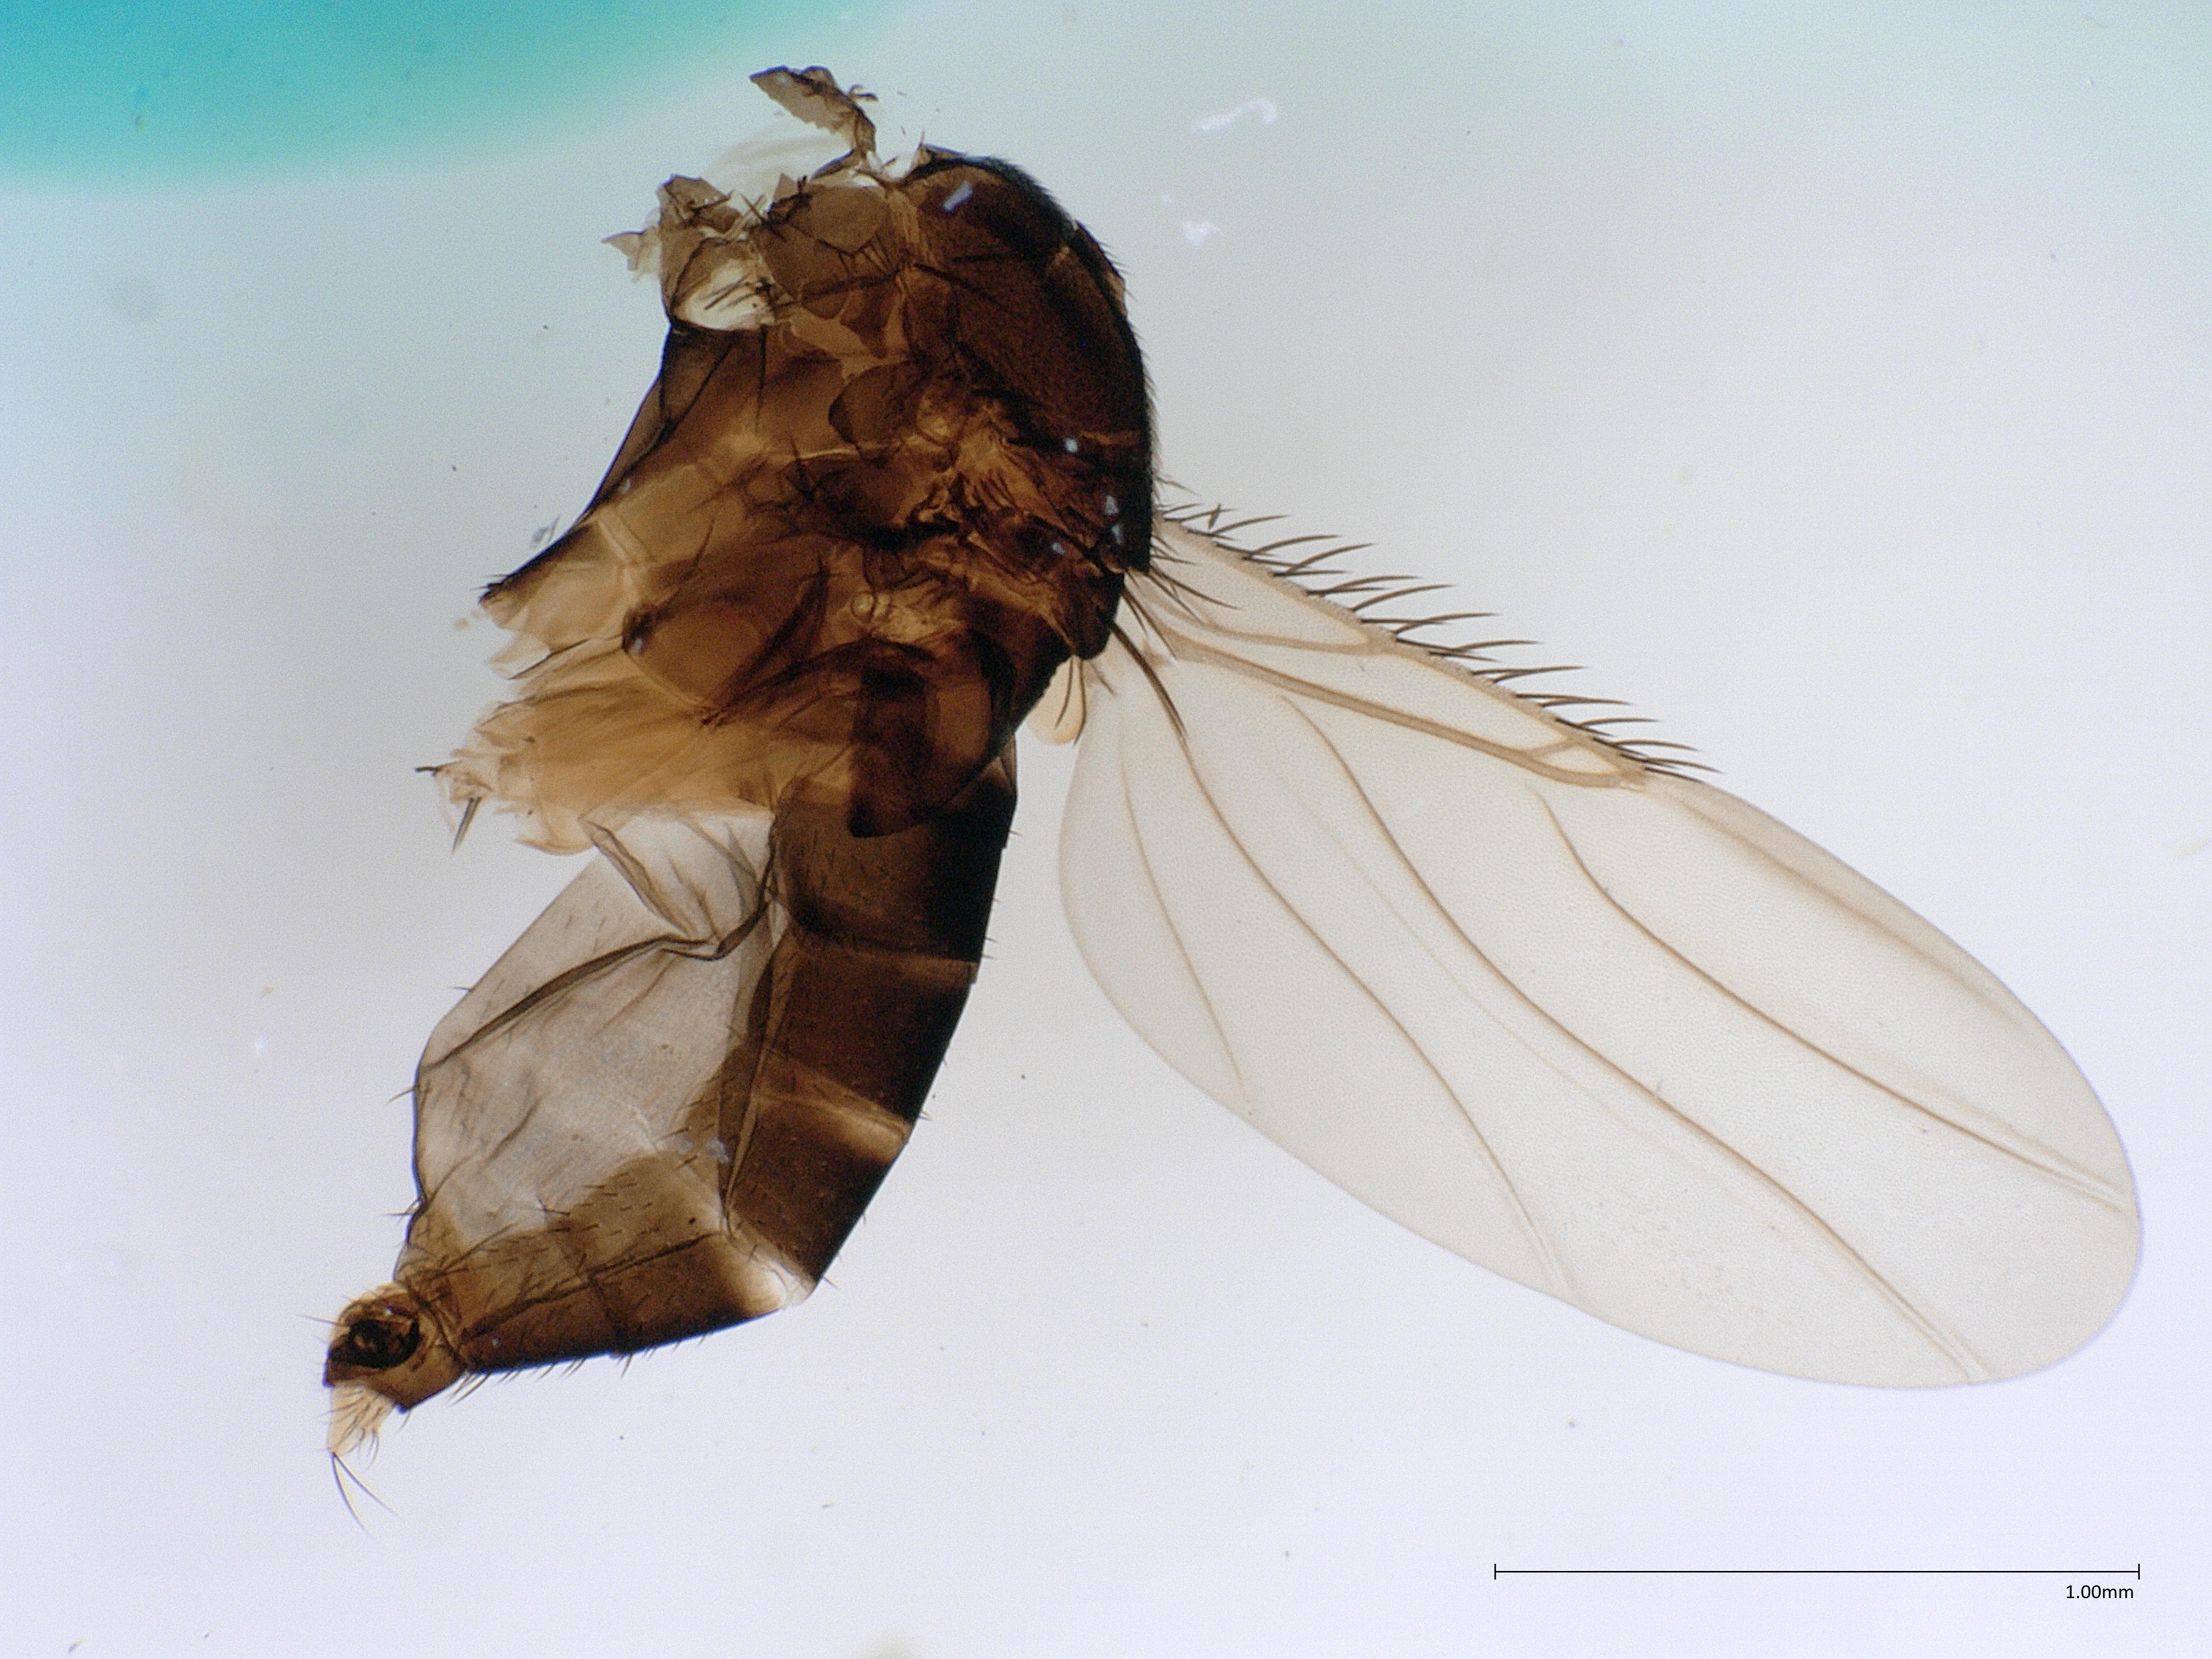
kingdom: Animalia
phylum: Arthropoda
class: Insecta
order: Diptera
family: Phoridae
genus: Megaselia
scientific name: Megaselia variana
